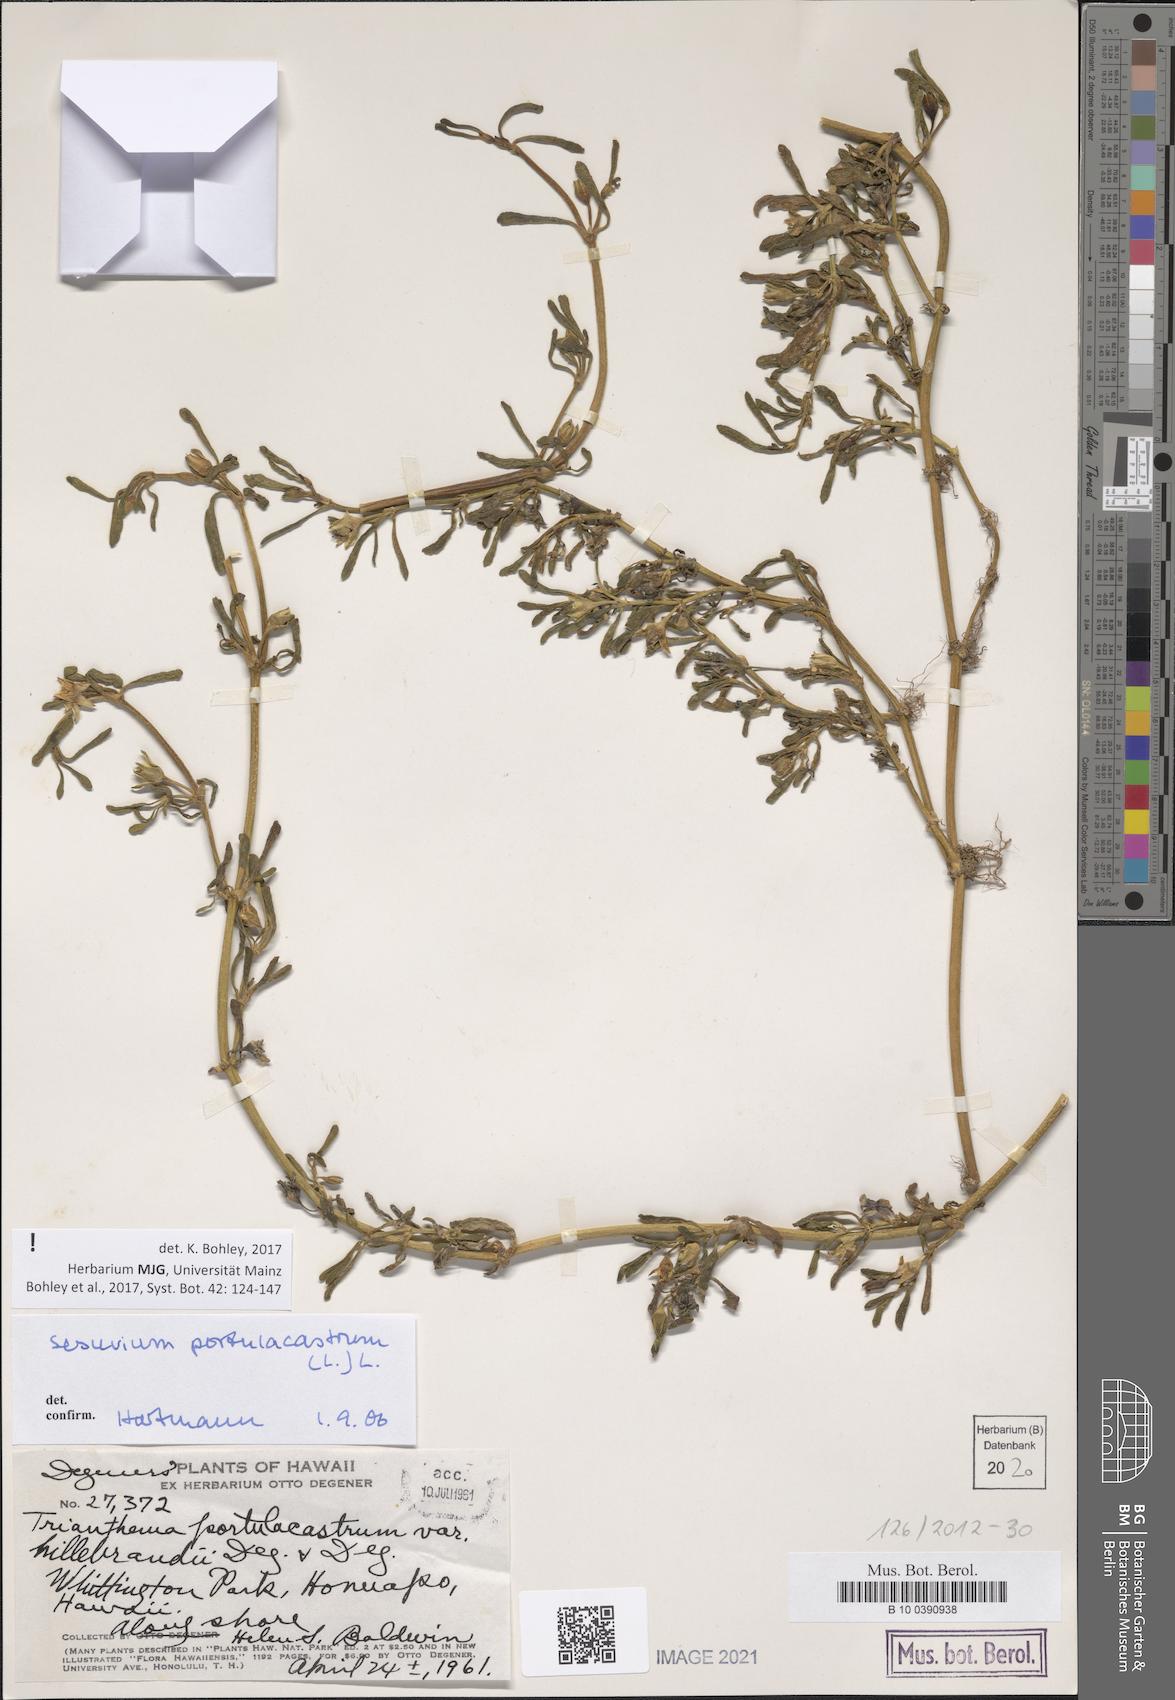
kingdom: Plantae
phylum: Tracheophyta
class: Magnoliopsida
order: Caryophyllales
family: Aizoaceae
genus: Sesuvium
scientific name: Sesuvium portulacastrum
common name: Sea-purslane
